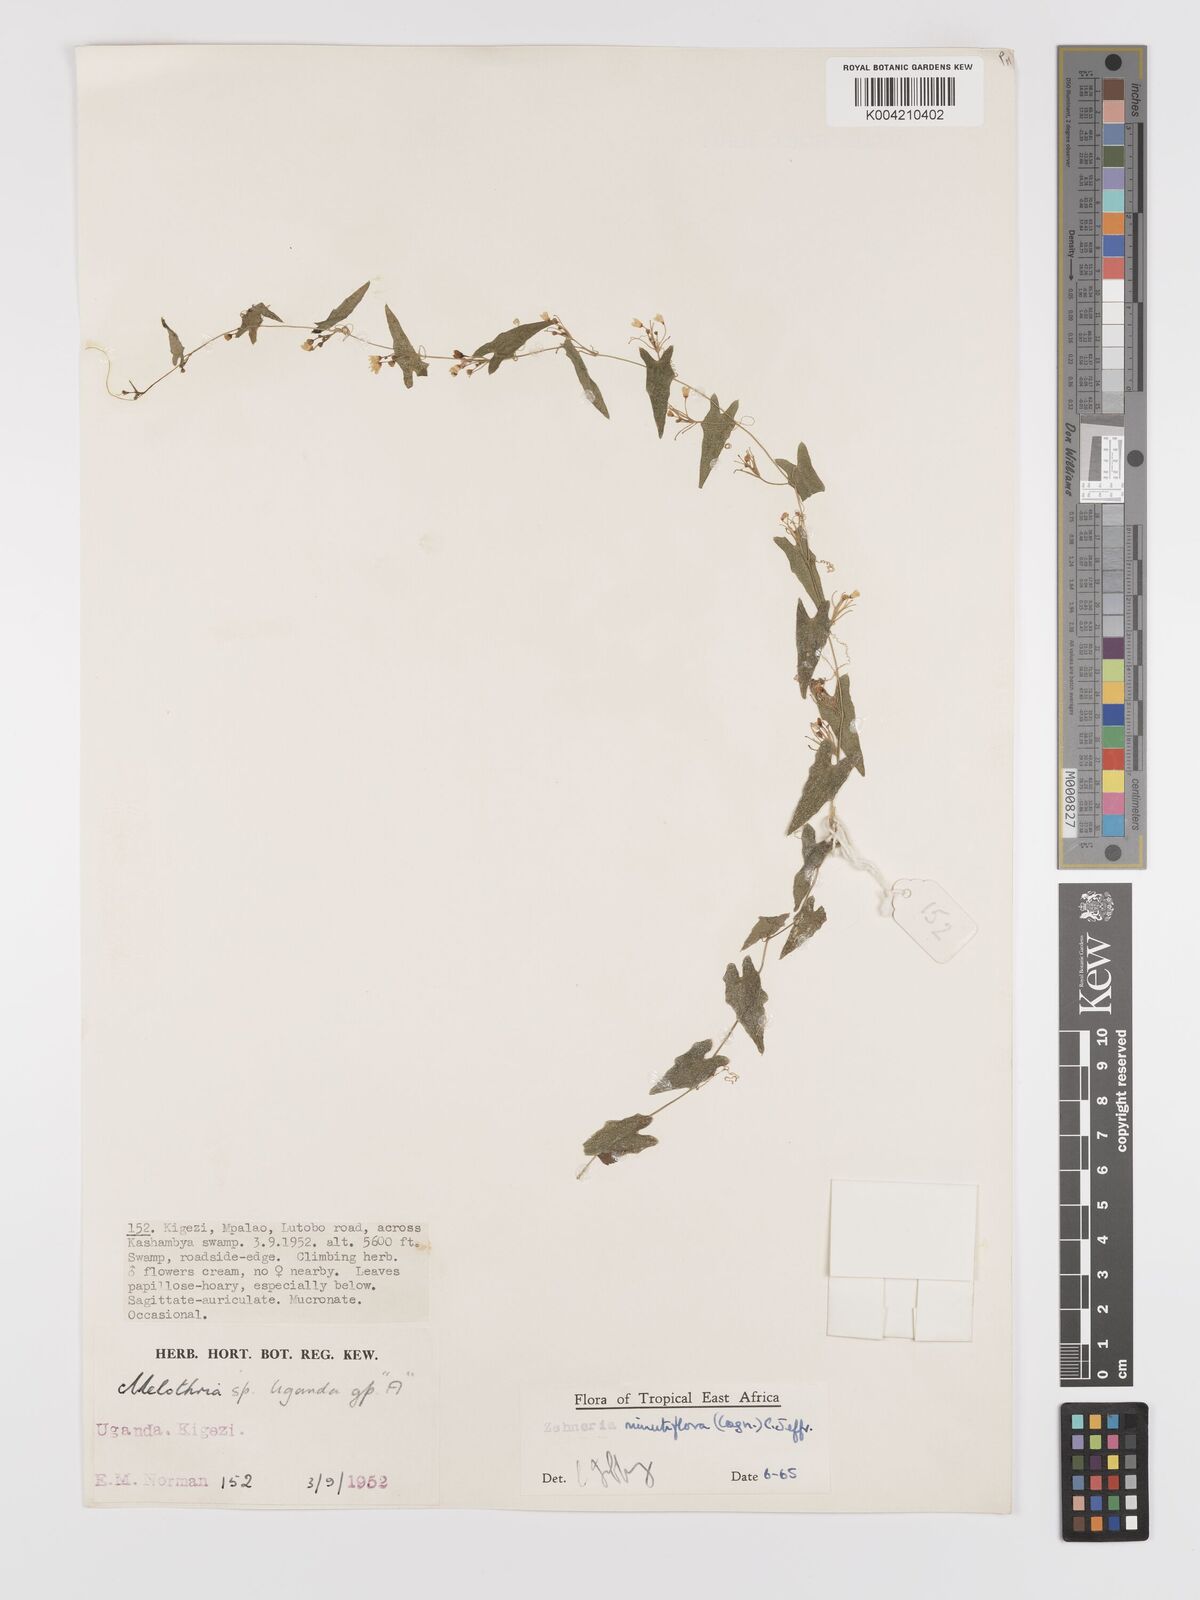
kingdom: Plantae
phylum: Tracheophyta
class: Magnoliopsida
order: Cucurbitales
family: Cucurbitaceae
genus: Zehneria
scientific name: Zehneria minutiflora
